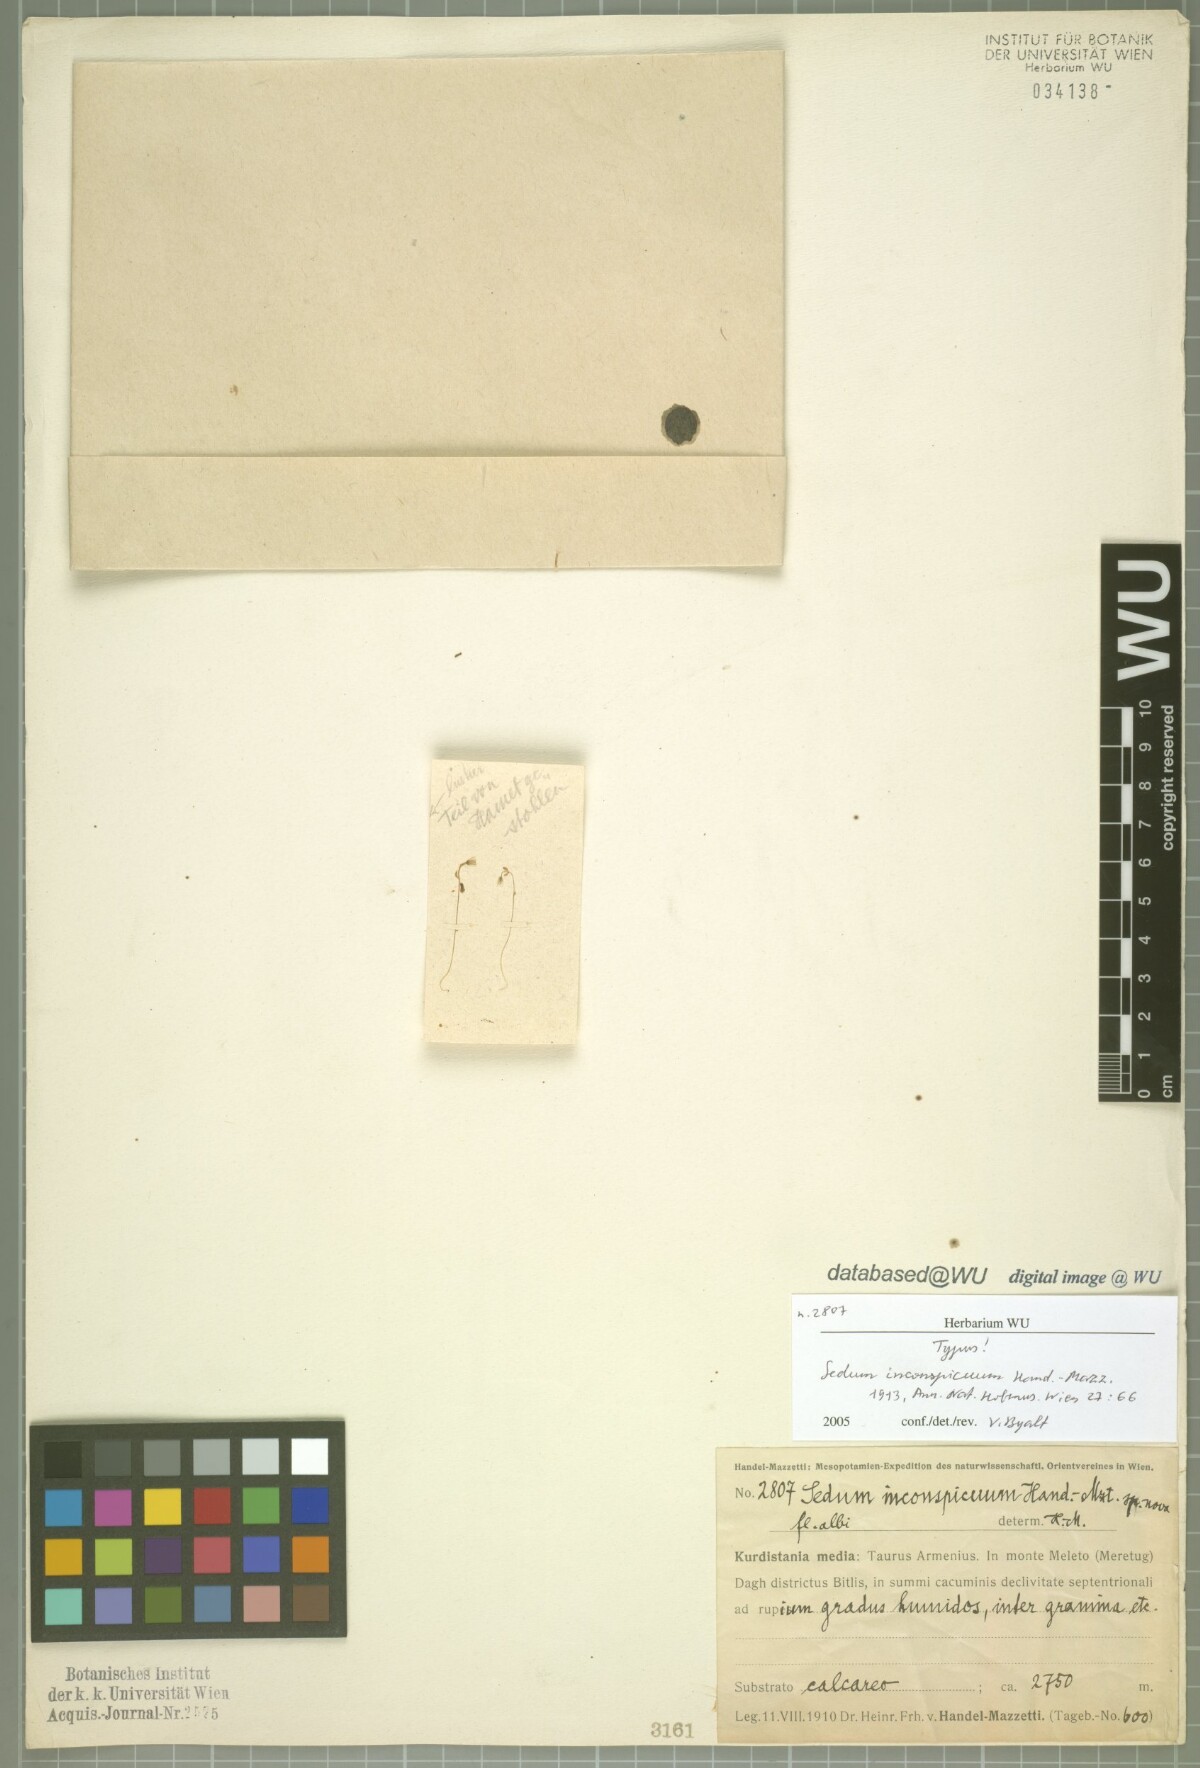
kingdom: Plantae
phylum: Tracheophyta
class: Magnoliopsida
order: Saxifragales
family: Crassulaceae
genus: Sedum
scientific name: Sedum inconspicuum
